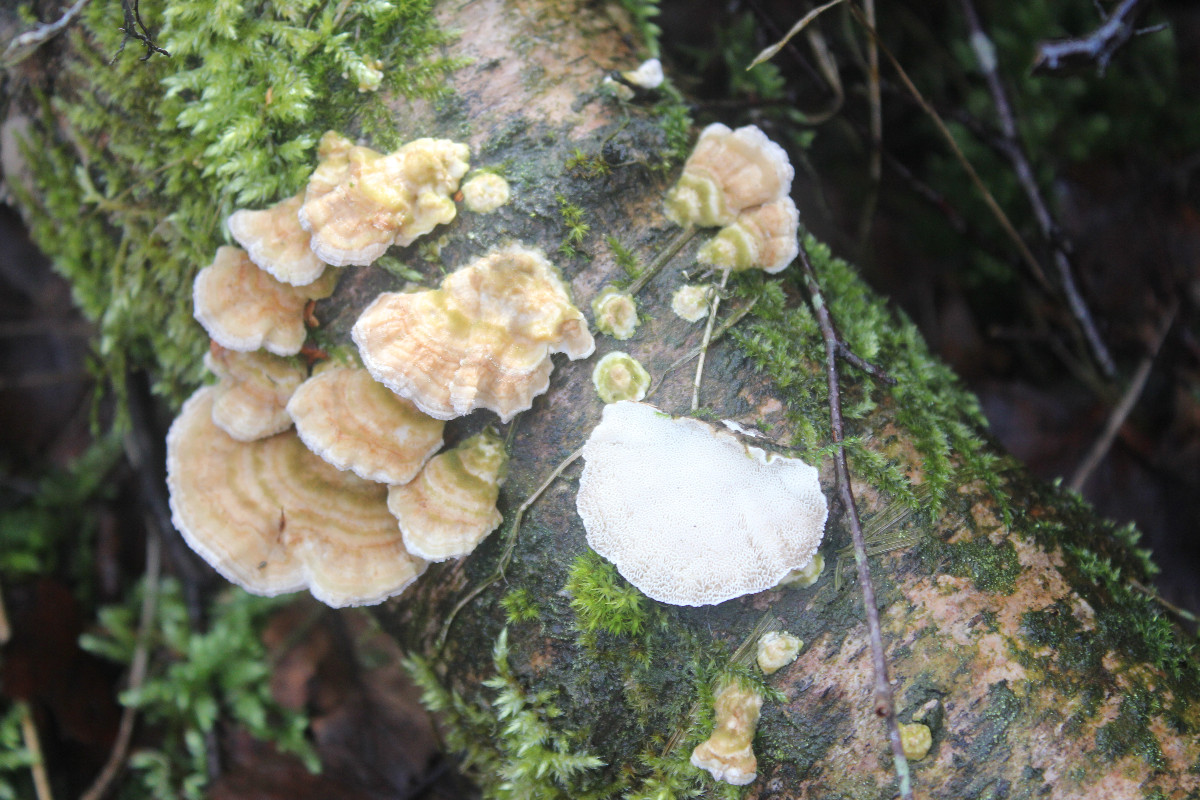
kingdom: Fungi
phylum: Basidiomycota
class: Agaricomycetes
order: Polyporales
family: Polyporaceae
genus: Trametes
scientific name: Trametes hirsuta
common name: håret læderporesvamp
